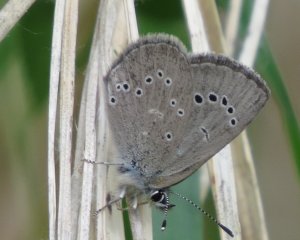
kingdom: Animalia
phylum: Arthropoda
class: Insecta
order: Lepidoptera
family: Lycaenidae
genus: Glaucopsyche
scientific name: Glaucopsyche lygdamus
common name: Silvery Blue
